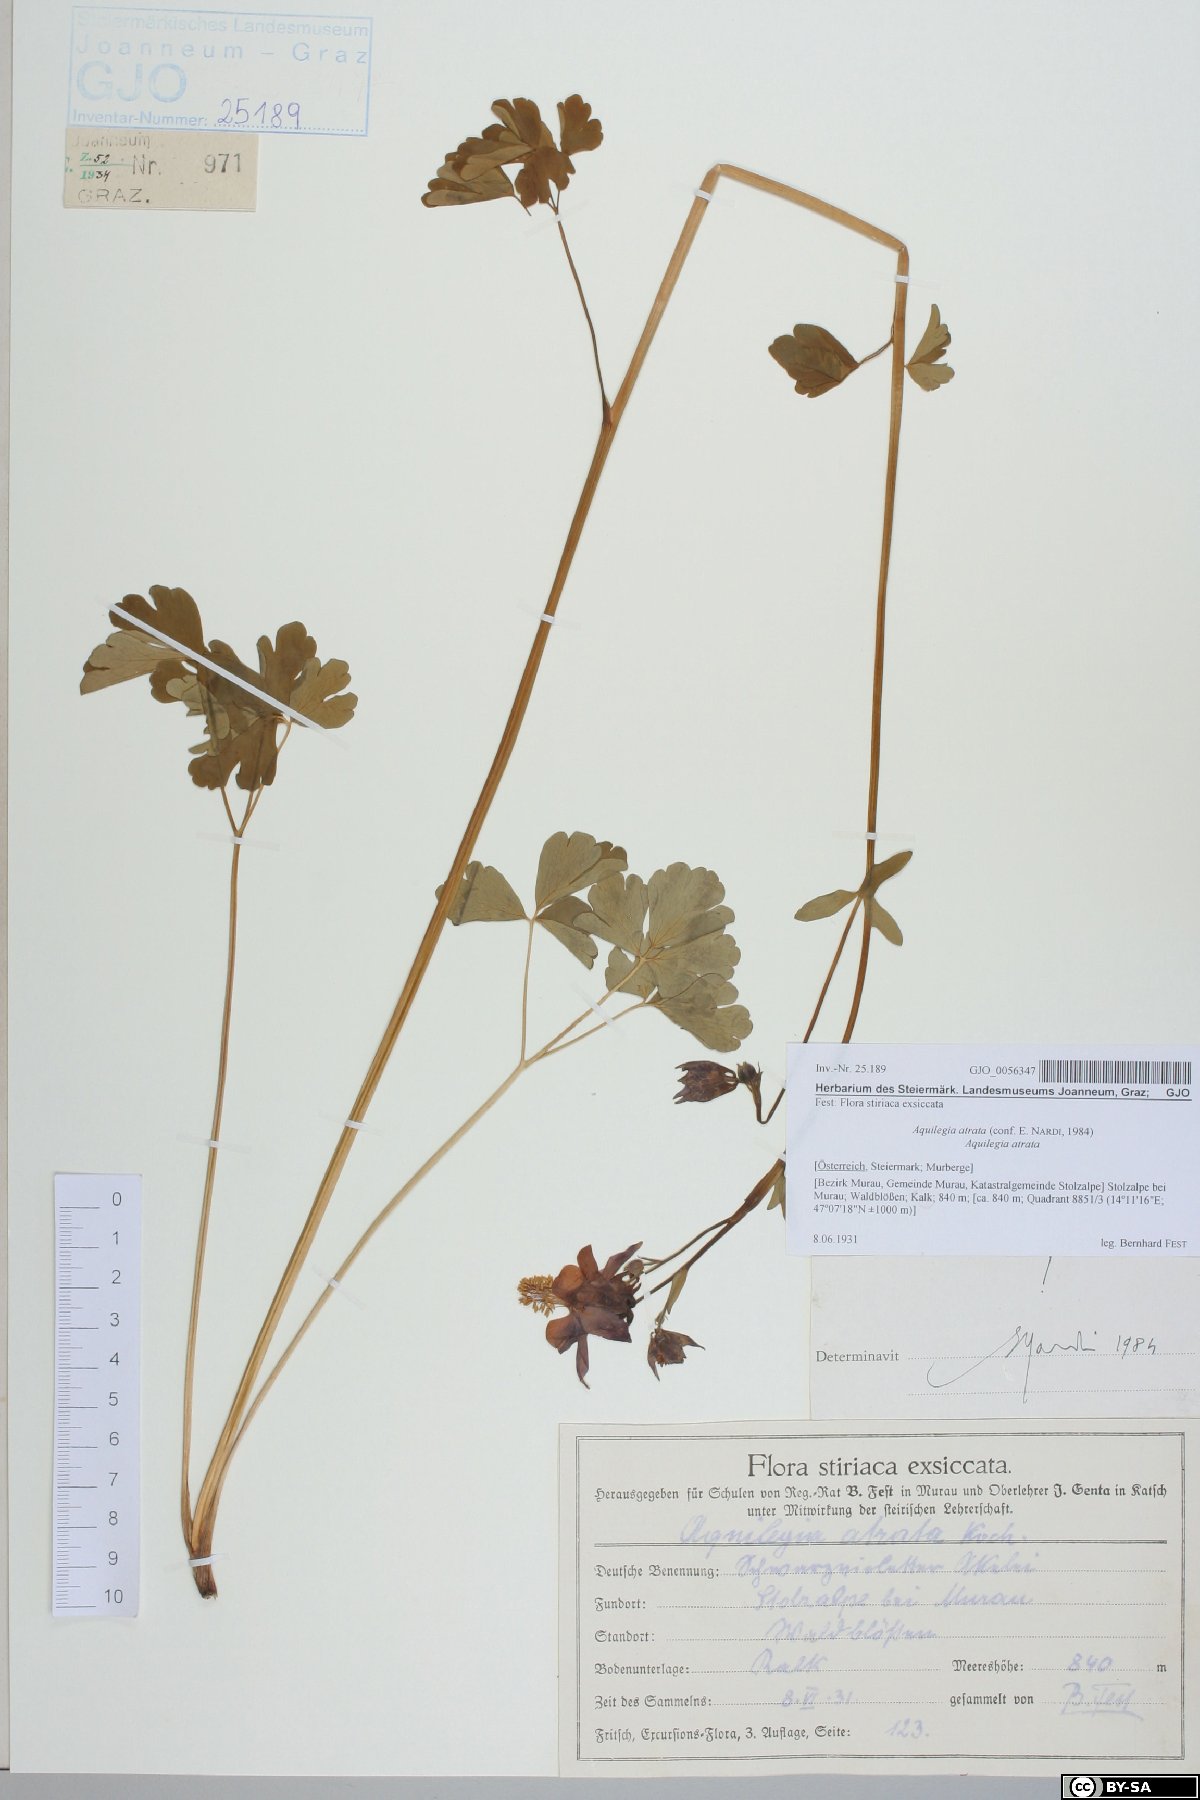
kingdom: Plantae
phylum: Tracheophyta
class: Magnoliopsida
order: Ranunculales
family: Ranunculaceae
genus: Aquilegia
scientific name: Aquilegia atrata
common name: Dark columbine
